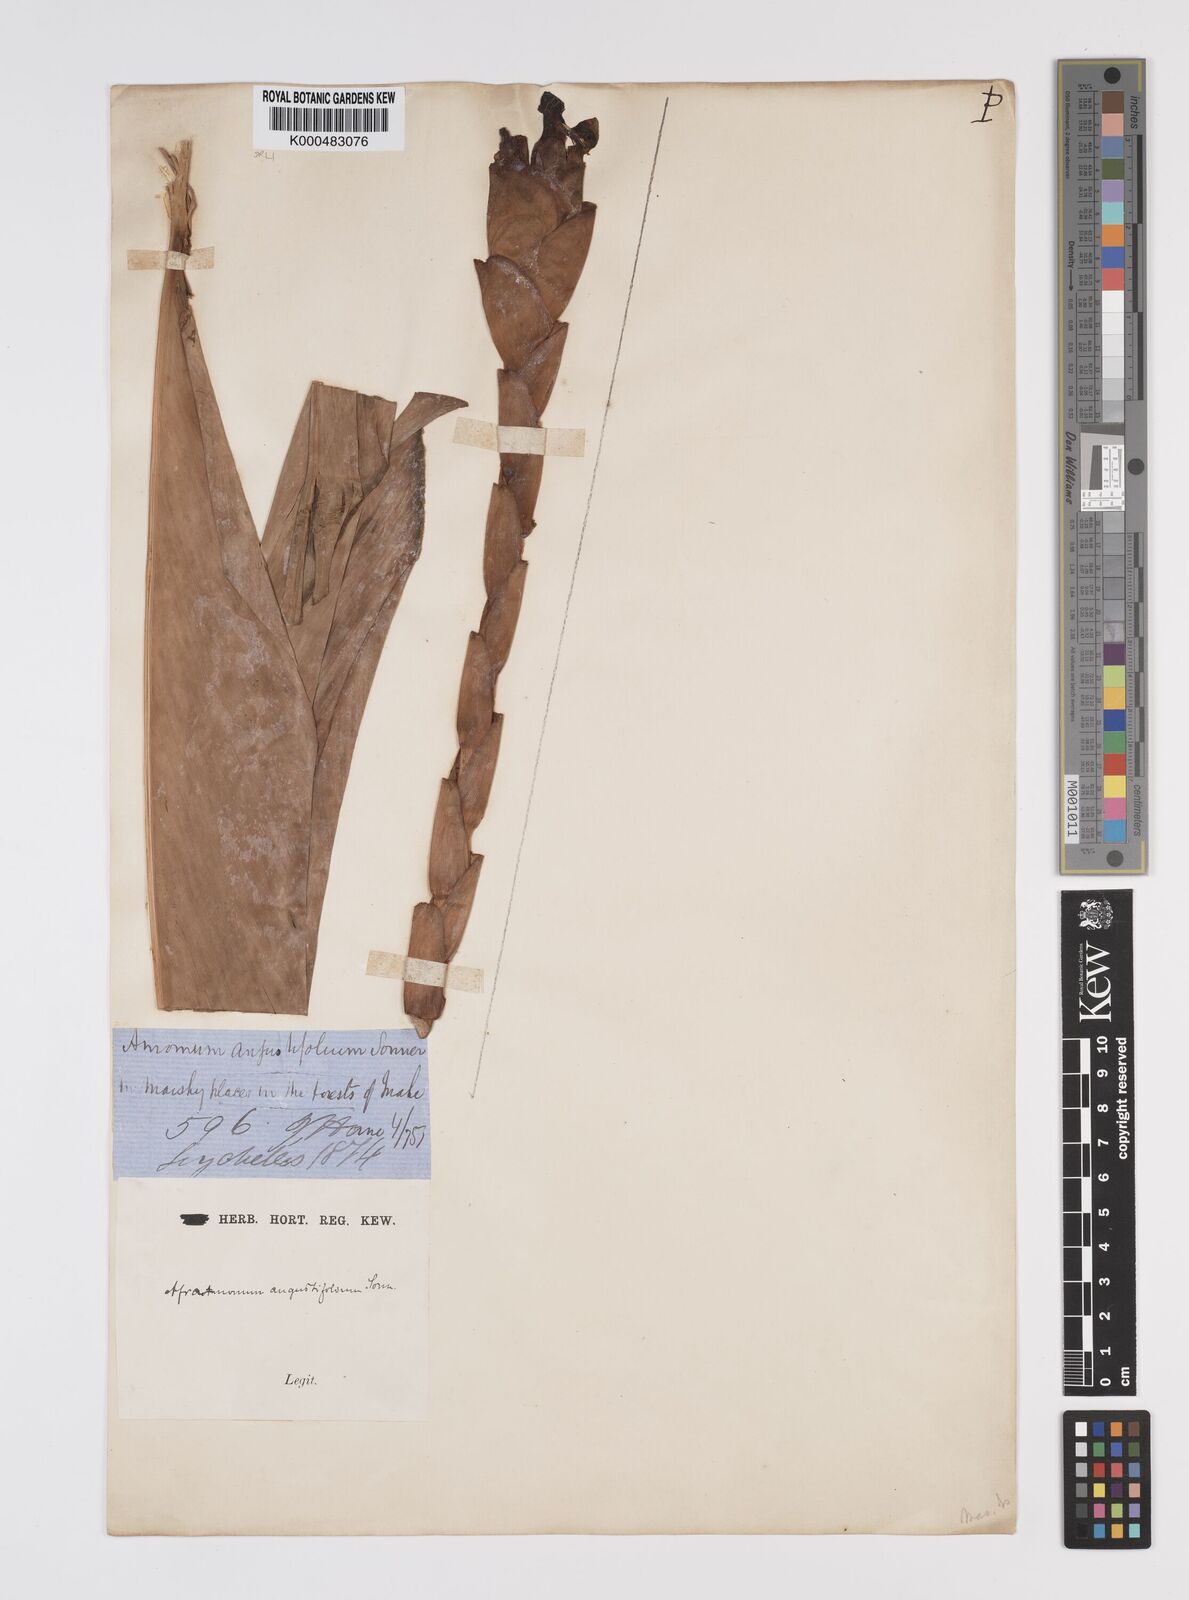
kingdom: Plantae
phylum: Tracheophyta
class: Liliopsida
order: Zingiberales
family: Zingiberaceae
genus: Aframomum
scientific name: Aframomum angustifolium
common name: Guinea grains
